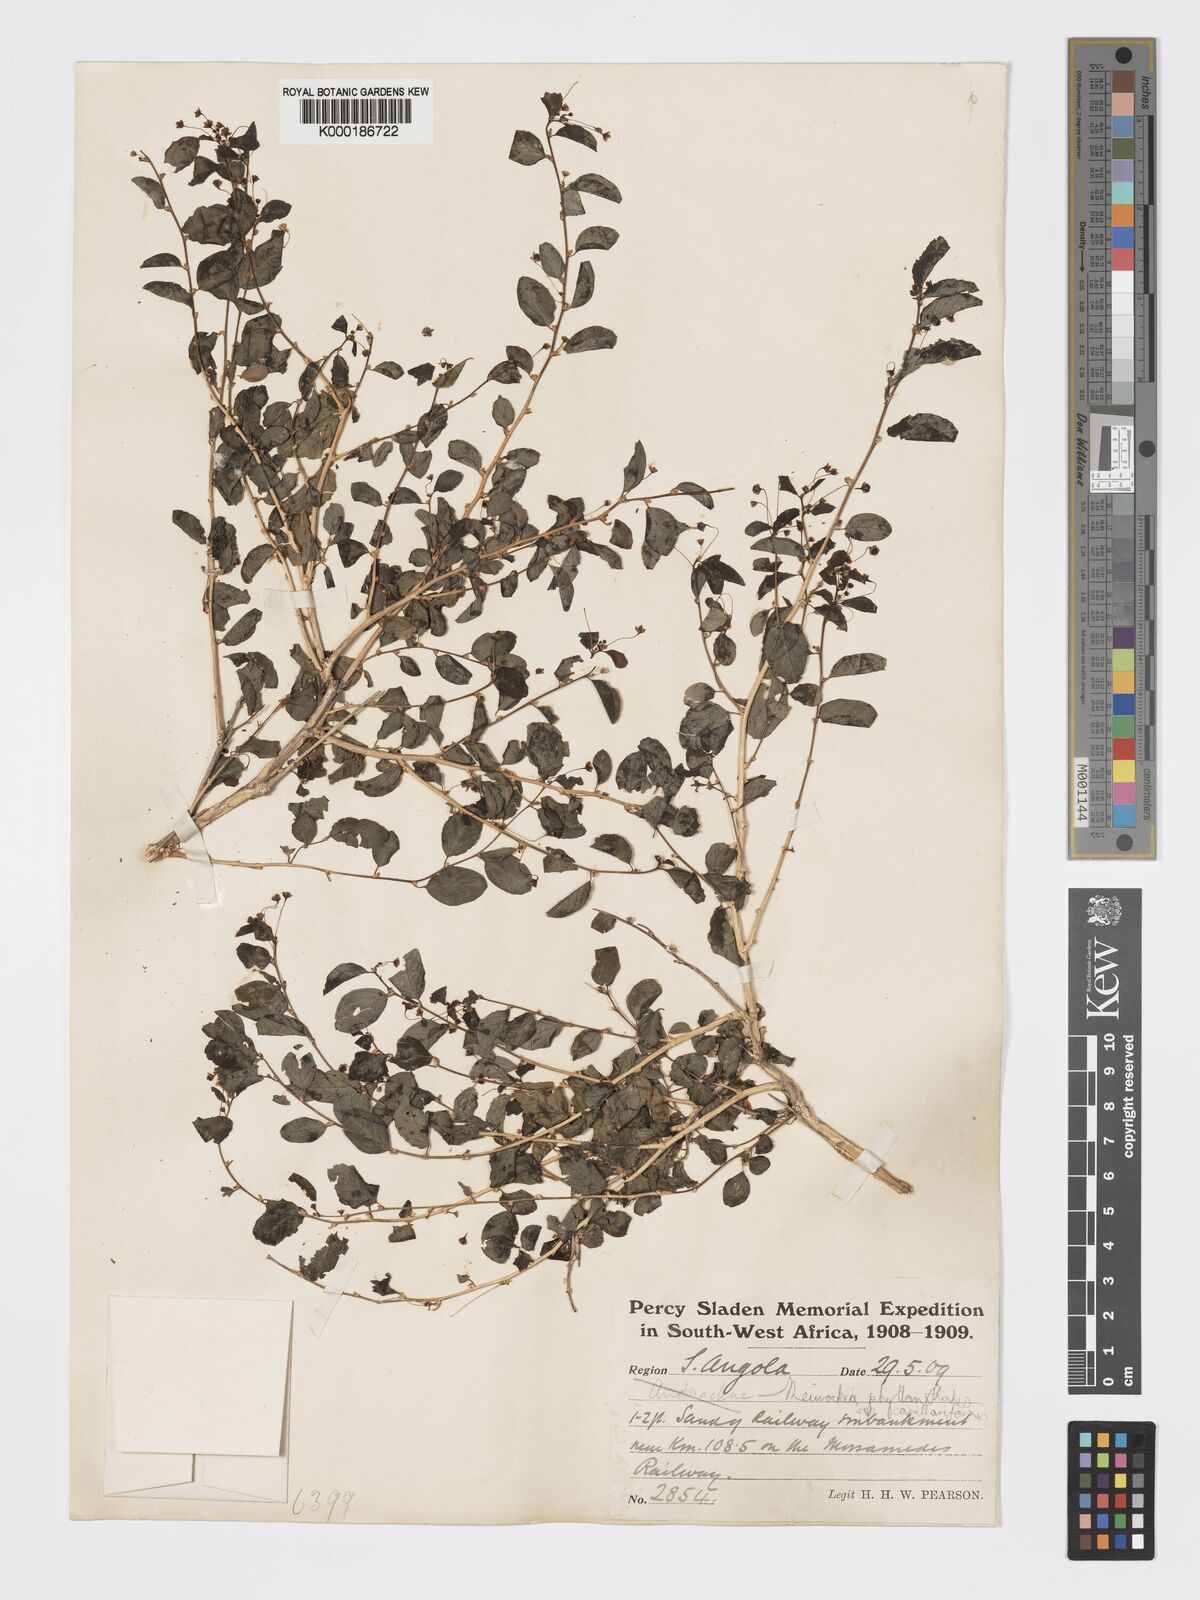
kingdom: Plantae
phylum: Tracheophyta
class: Magnoliopsida
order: Malpighiales
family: Phyllanthaceae
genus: Meineckia
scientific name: Meineckia phyllanthoides
